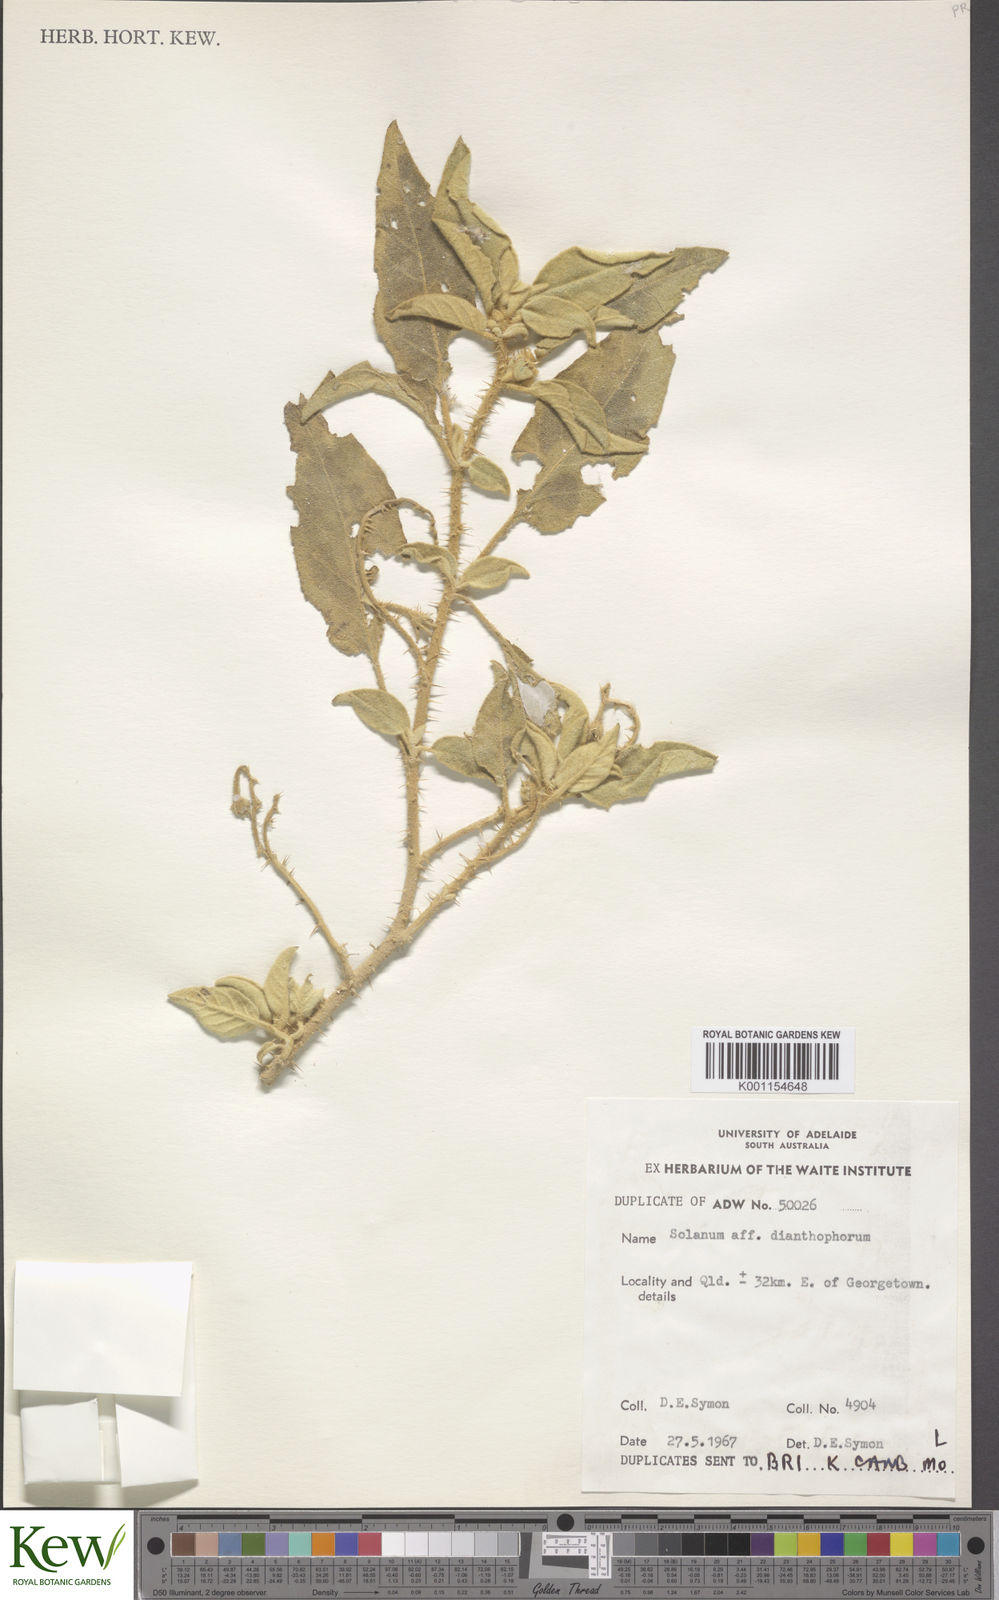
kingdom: Plantae
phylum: Tracheophyta
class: Magnoliopsida
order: Solanales
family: Solanaceae
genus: Solanum
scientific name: Solanum dianthophorum
